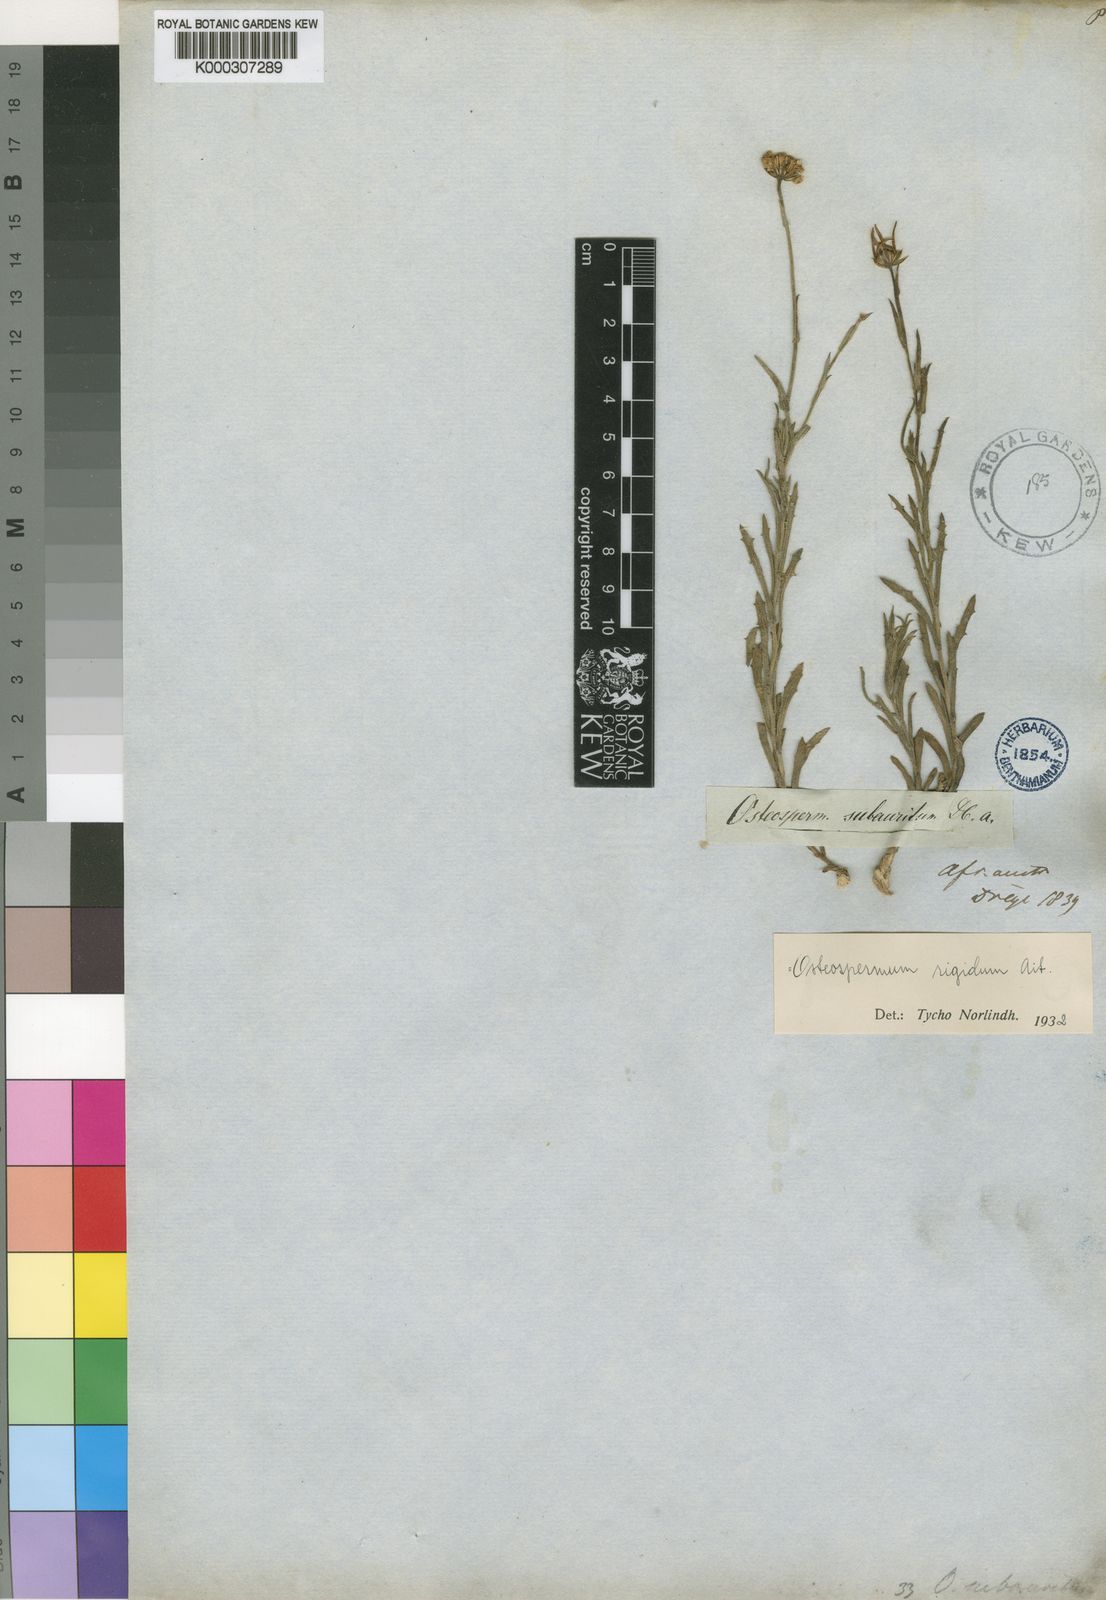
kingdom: Plantae
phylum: Tracheophyta
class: Magnoliopsida
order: Asterales
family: Asteraceae
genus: Osteospermum
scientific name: Osteospermum rigidum
